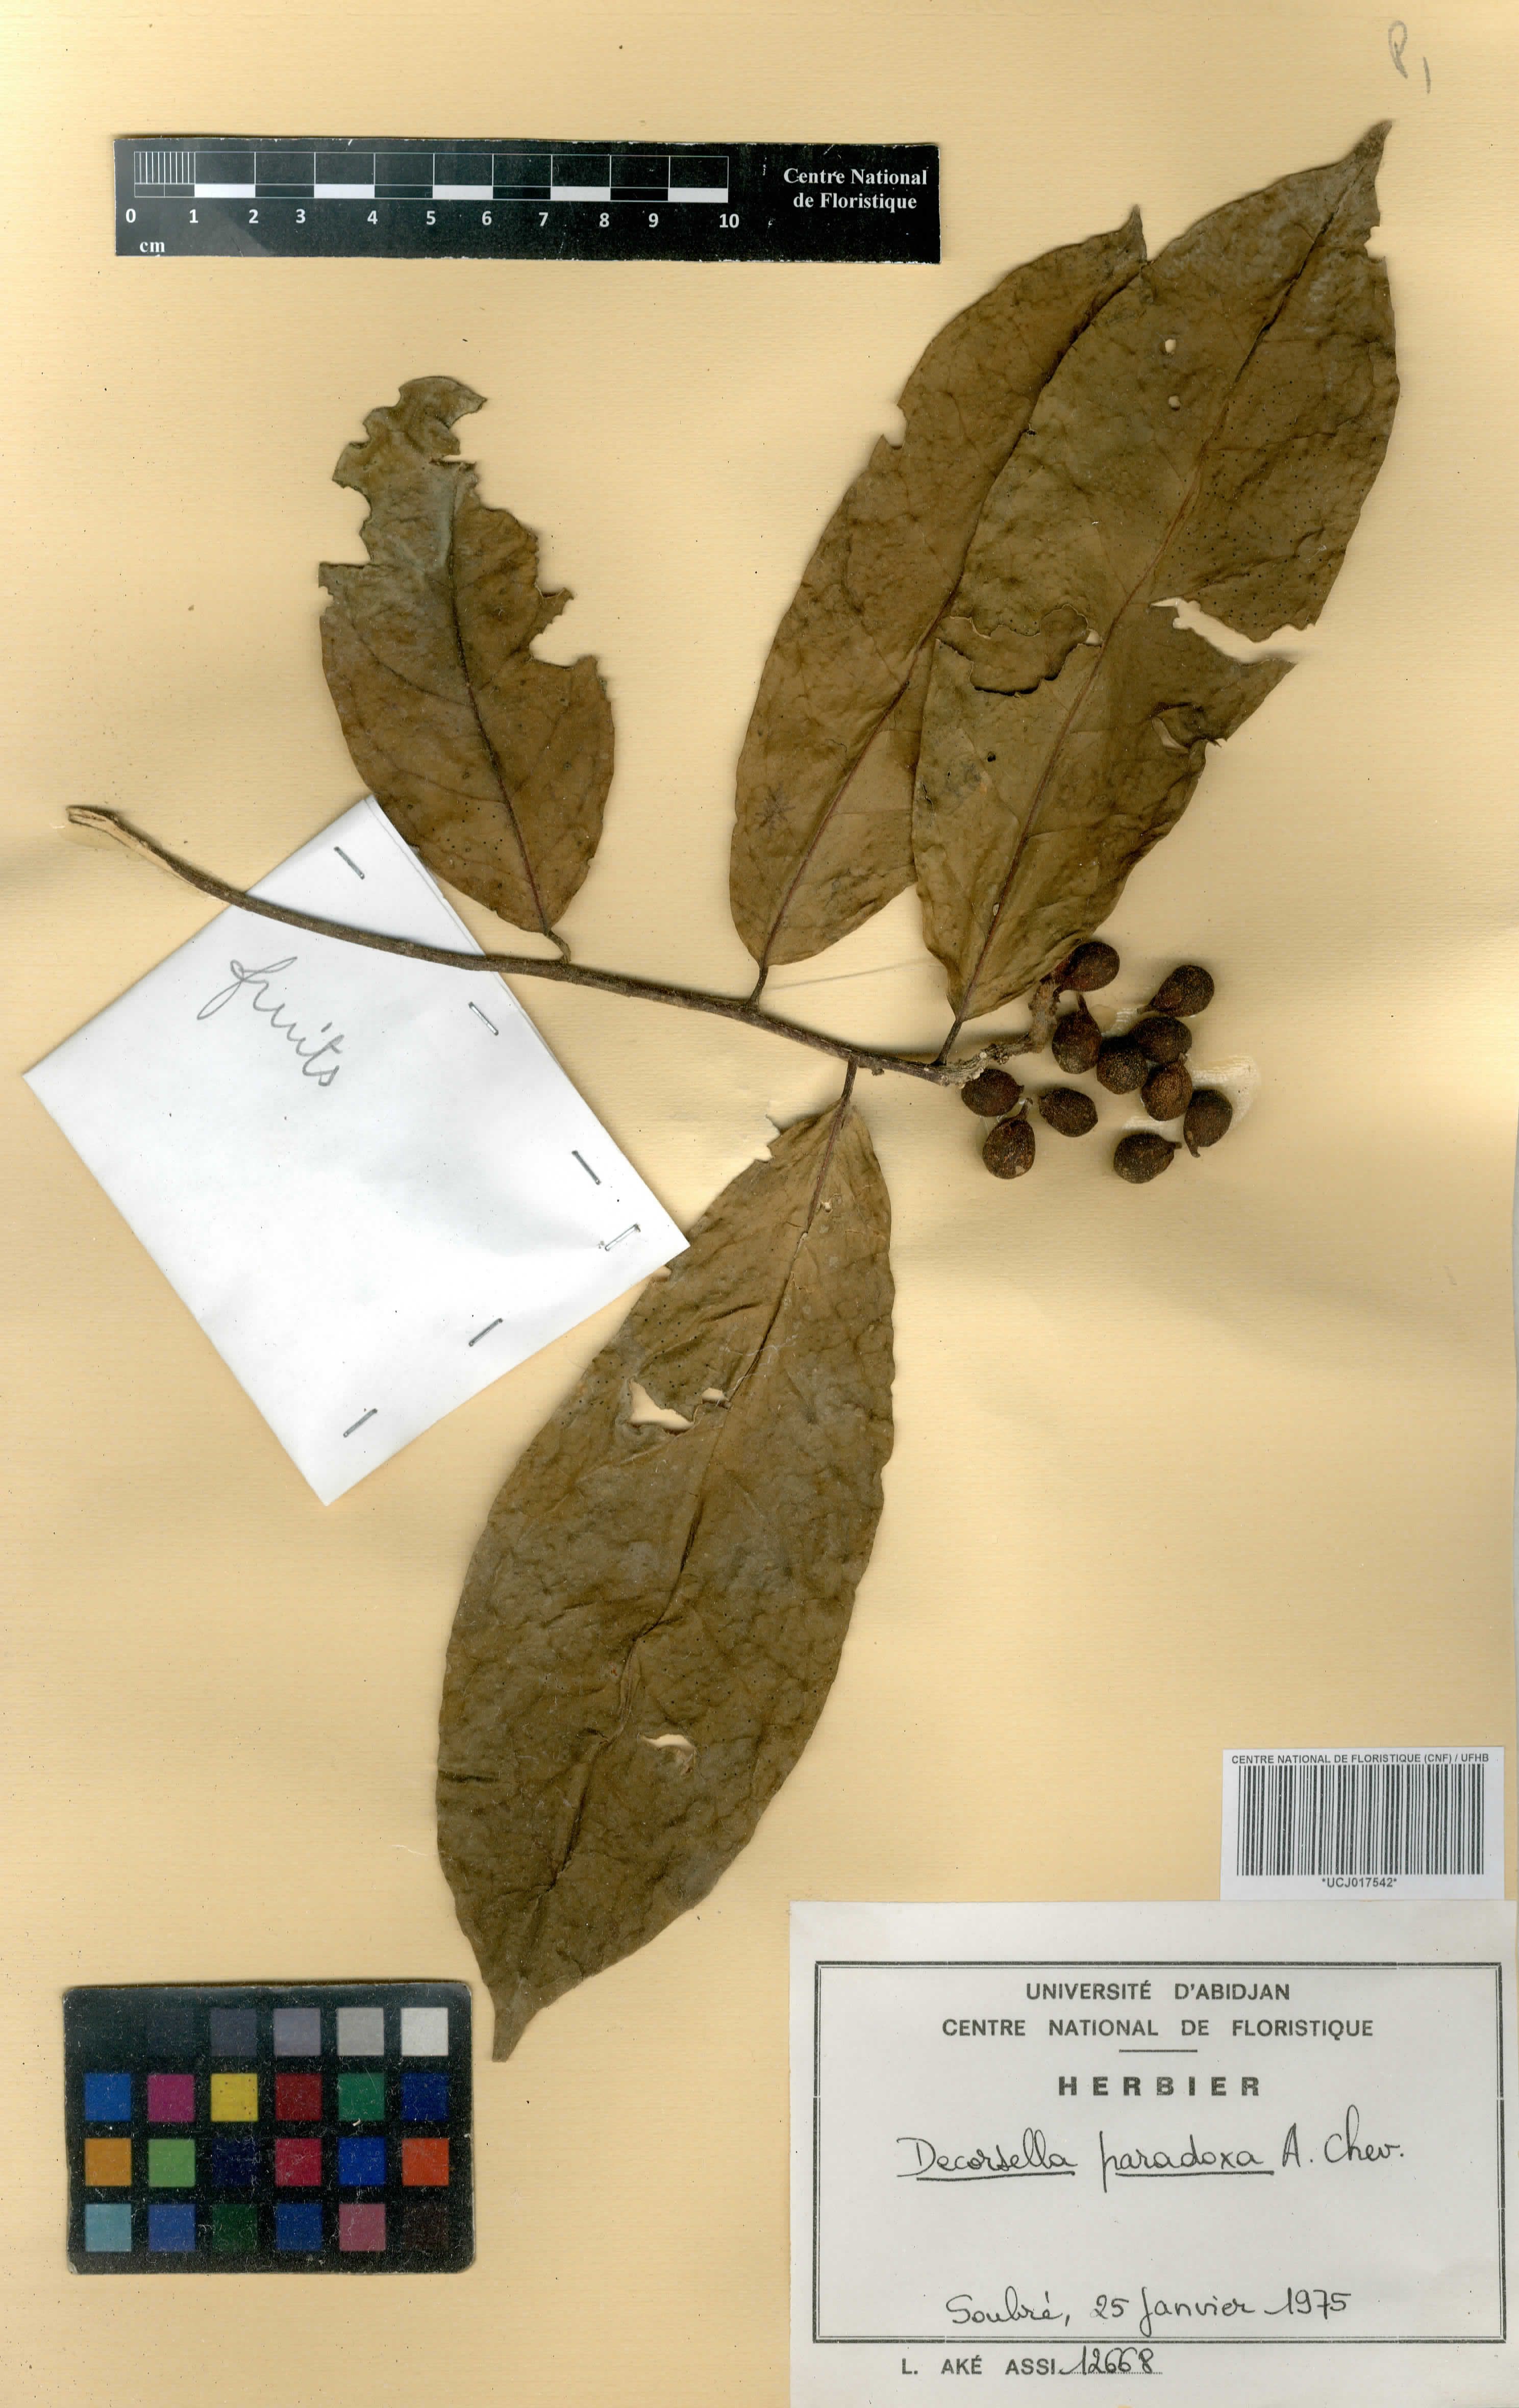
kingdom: Plantae
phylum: Tracheophyta
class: Magnoliopsida
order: Malpighiales
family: Violaceae
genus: Decorsella
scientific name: Decorsella paradoxa
